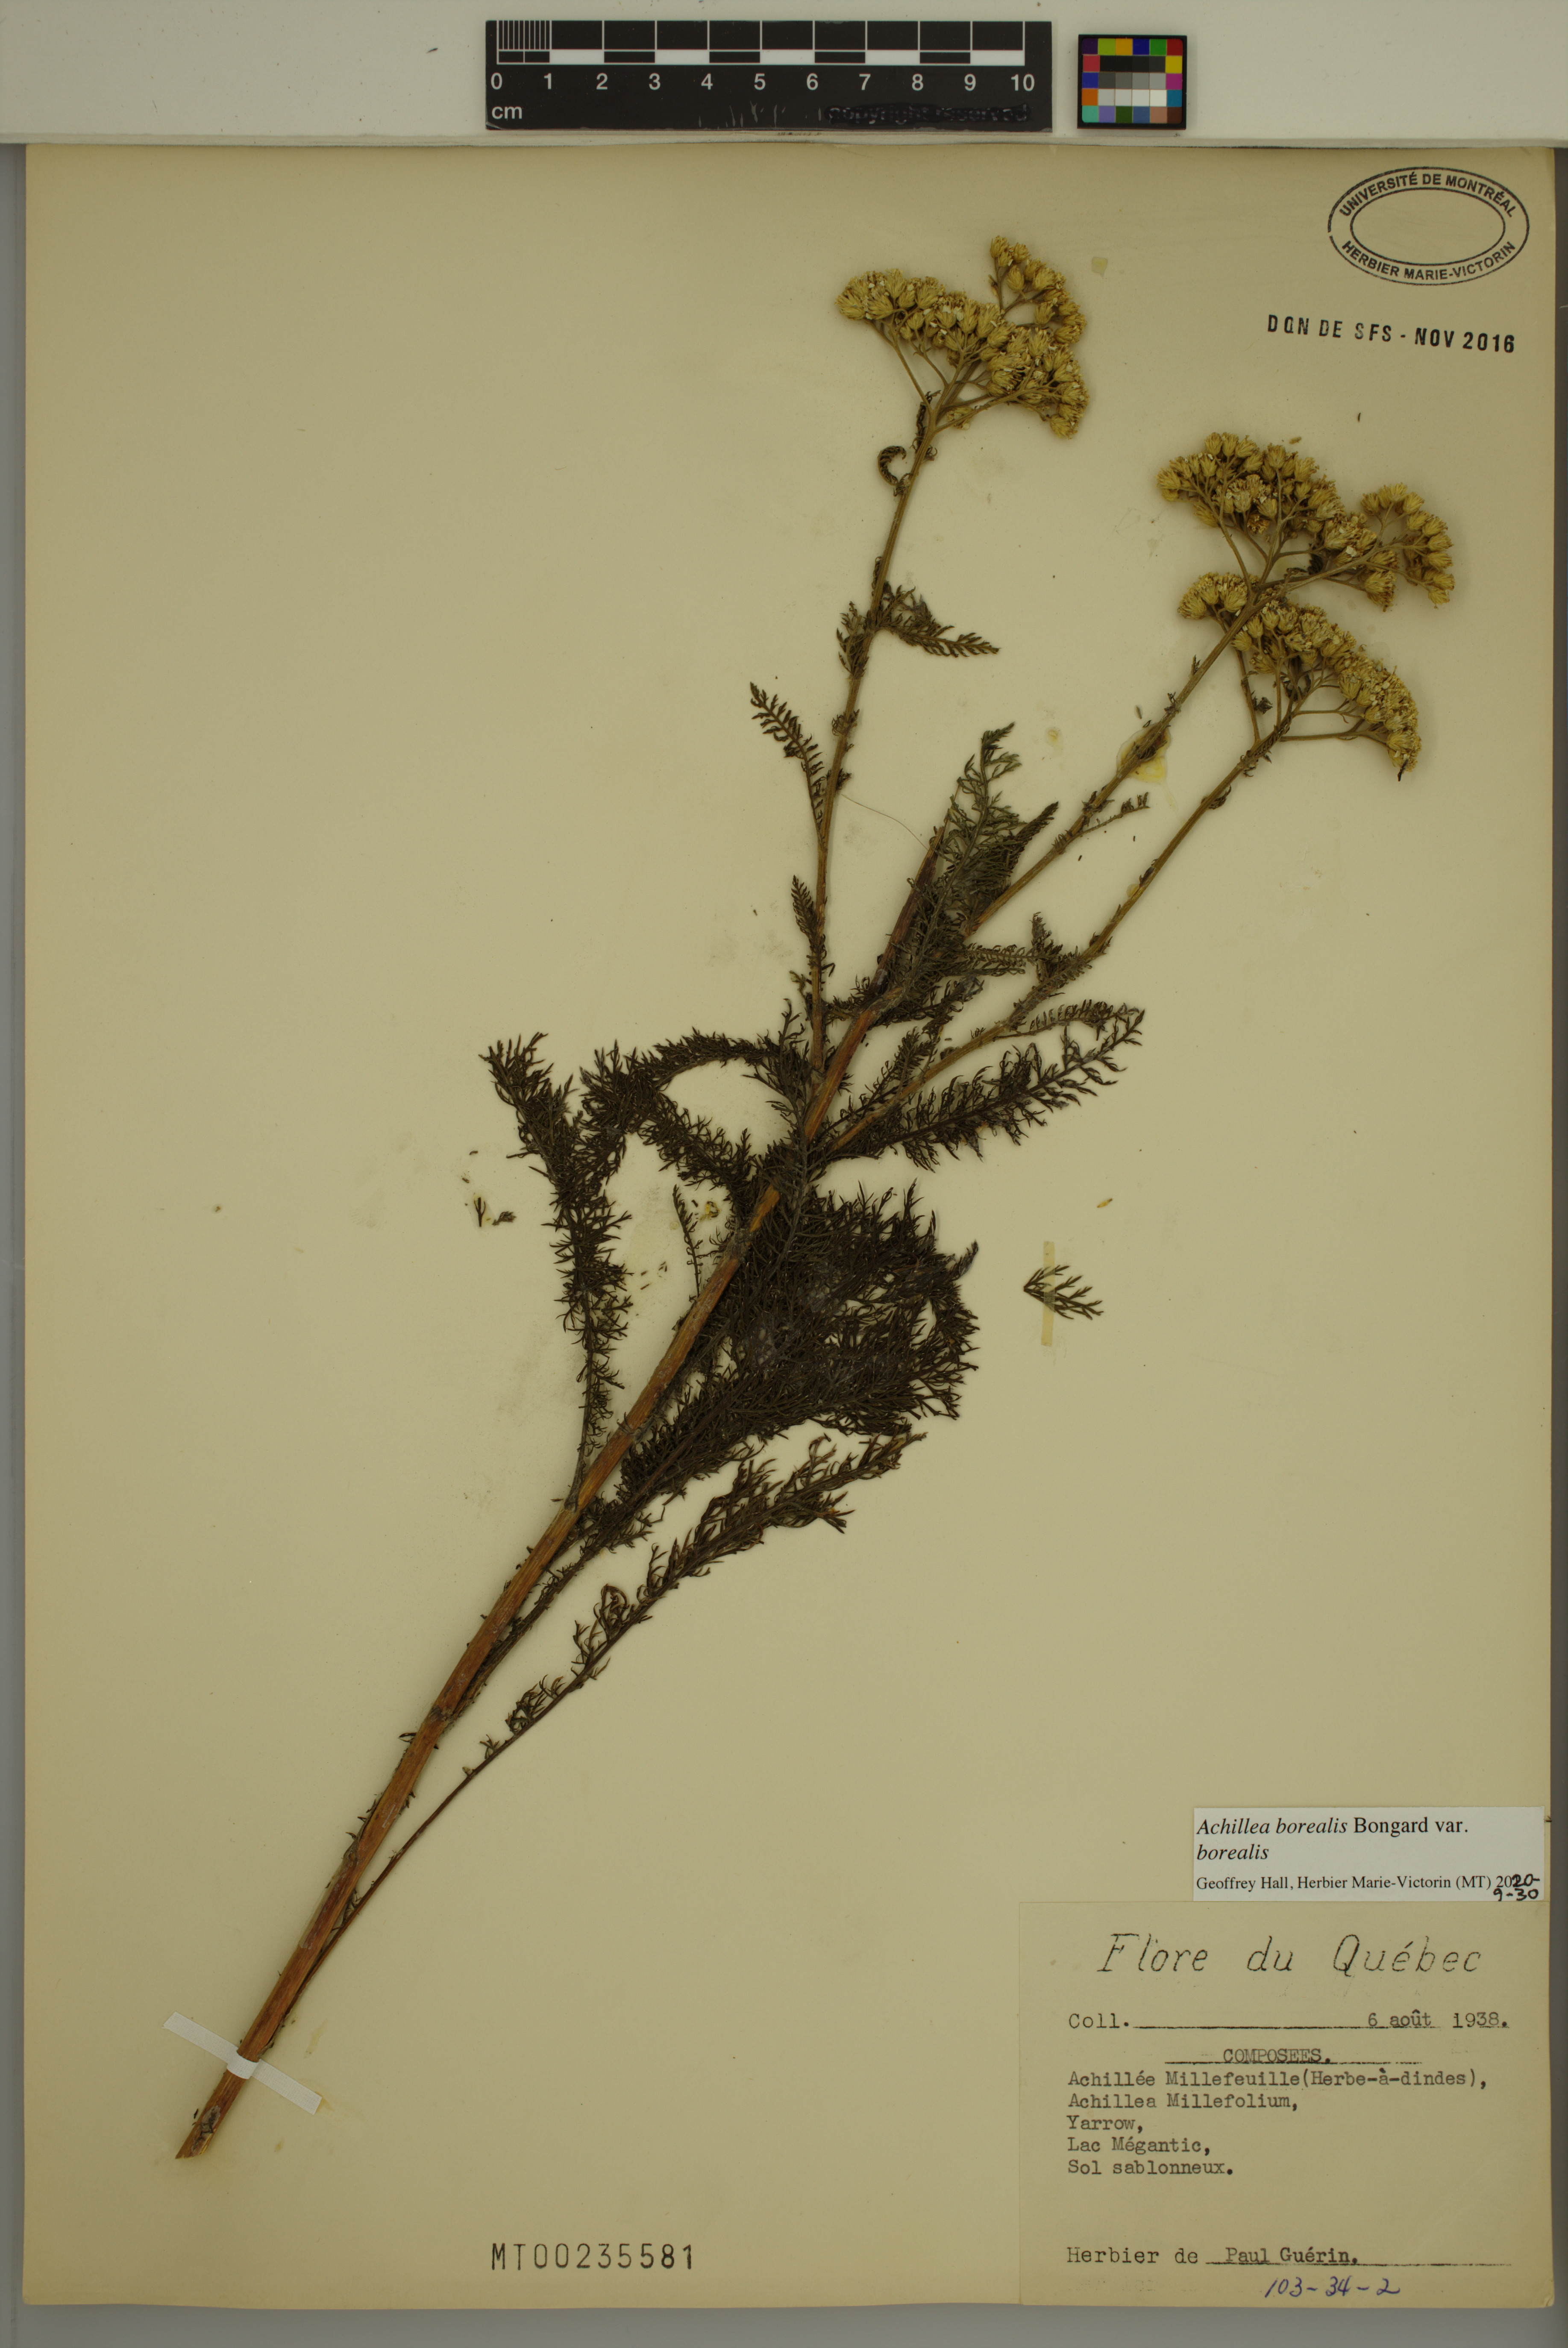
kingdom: Plantae
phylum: Tracheophyta
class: Magnoliopsida
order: Asterales
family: Asteraceae
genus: Achillea
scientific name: Achillea millefolium
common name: Yarrow
